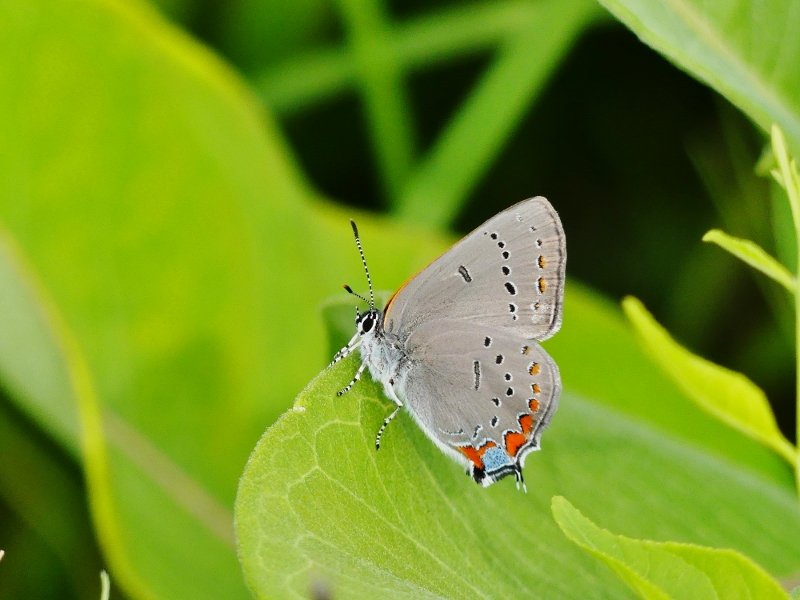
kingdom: Animalia
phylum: Arthropoda
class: Insecta
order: Lepidoptera
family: Lycaenidae
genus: Strymon
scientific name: Strymon acadica
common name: Acadian Hairstreak
